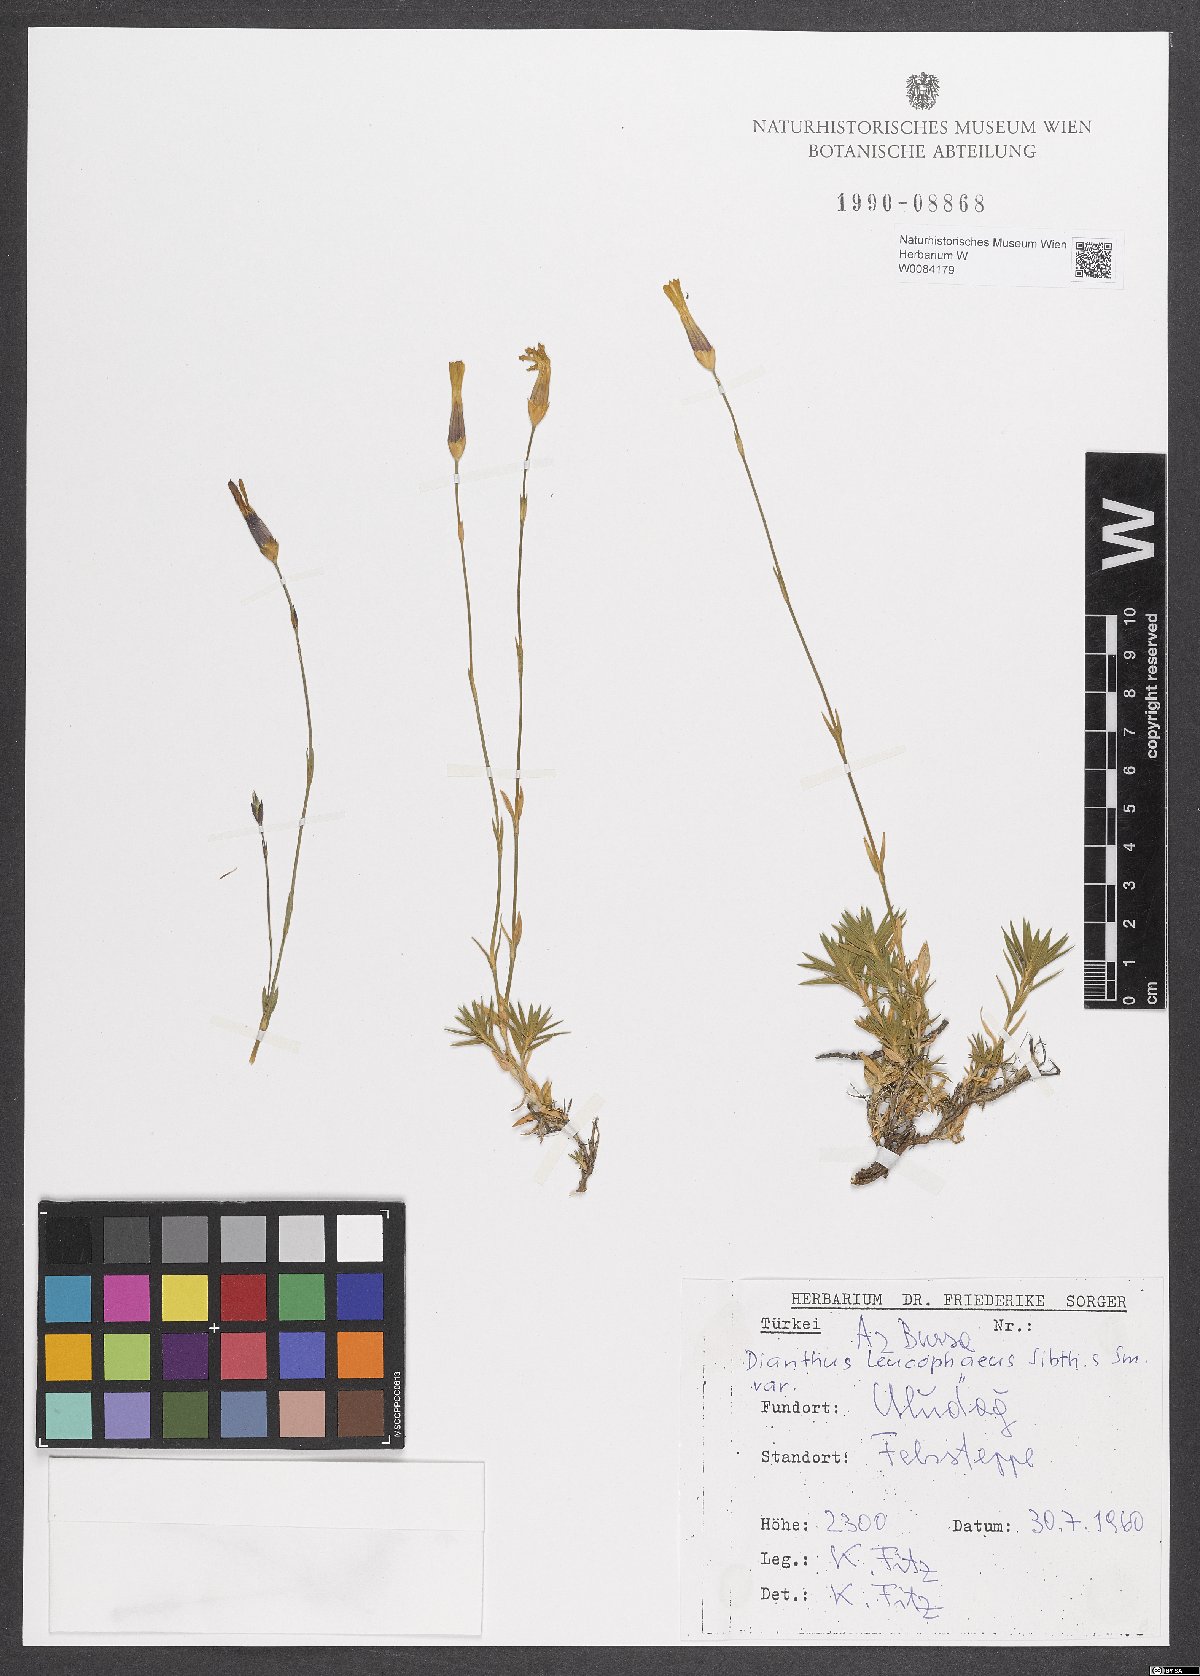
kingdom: Plantae
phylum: Tracheophyta
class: Magnoliopsida
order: Caryophyllales
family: Caryophyllaceae
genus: Dianthus
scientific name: Dianthus leucophaeus
